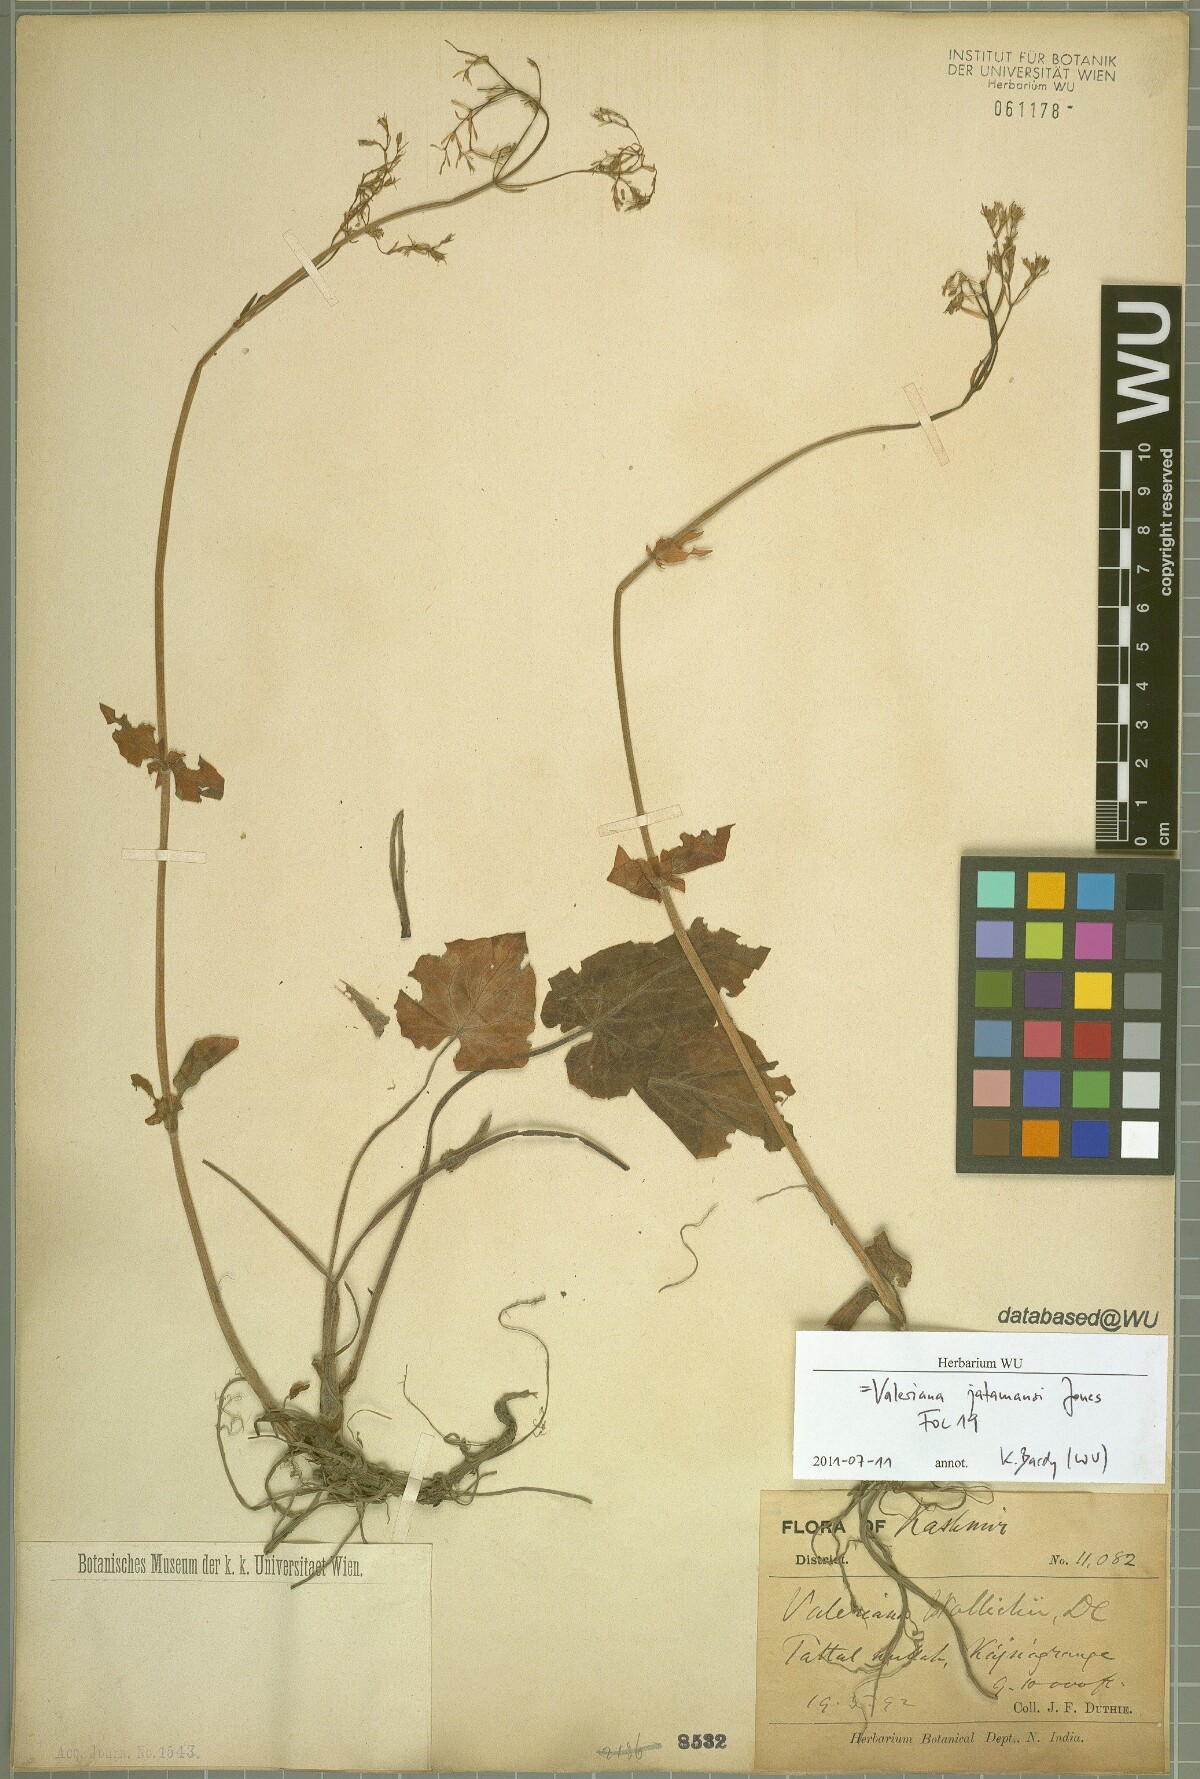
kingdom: Plantae
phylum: Tracheophyta
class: Magnoliopsida
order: Dipsacales
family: Caprifoliaceae
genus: Valeriana
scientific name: Valeriana jatamansi
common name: Indian valerian
